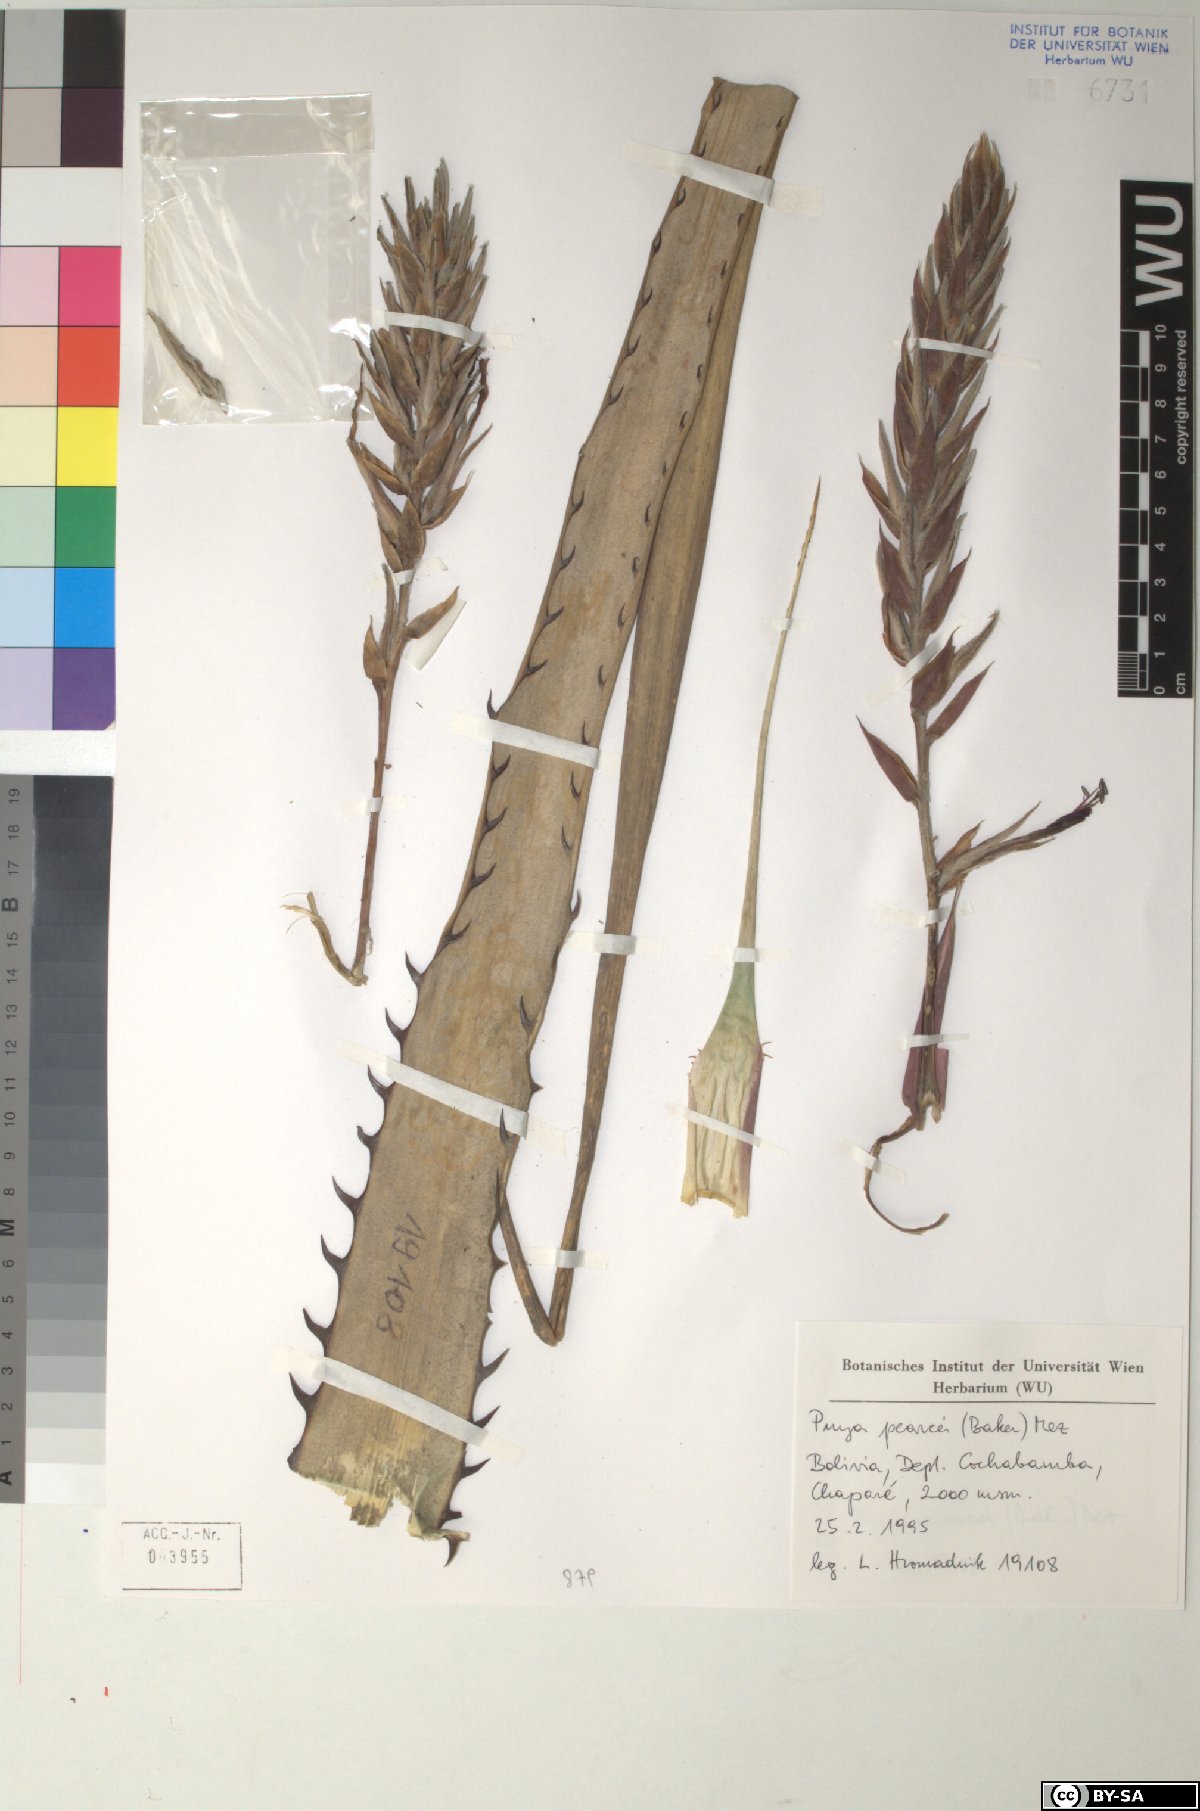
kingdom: Plantae
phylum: Tracheophyta
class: Liliopsida
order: Poales
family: Bromeliaceae
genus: Puya
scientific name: Puya pearcei
